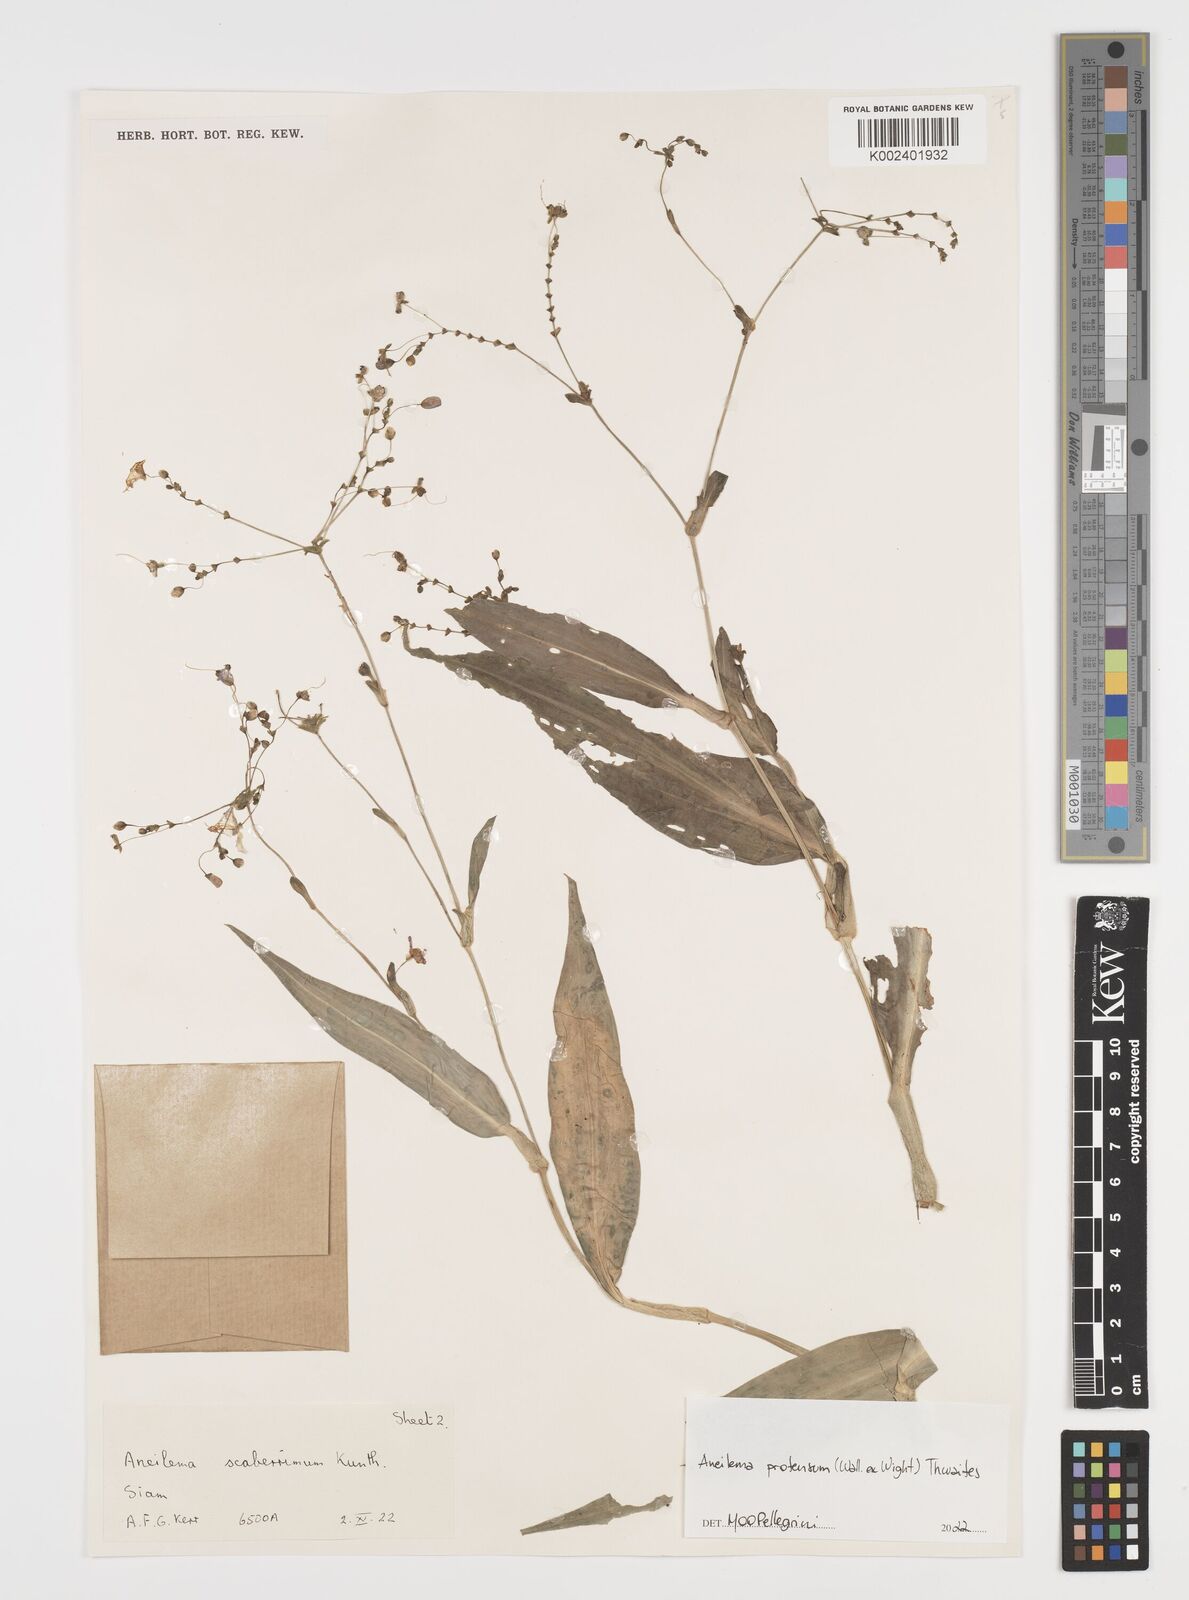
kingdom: Plantae
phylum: Tracheophyta
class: Liliopsida
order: Commelinales
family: Commelinaceae
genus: Rhopalephora
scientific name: Rhopalephora
